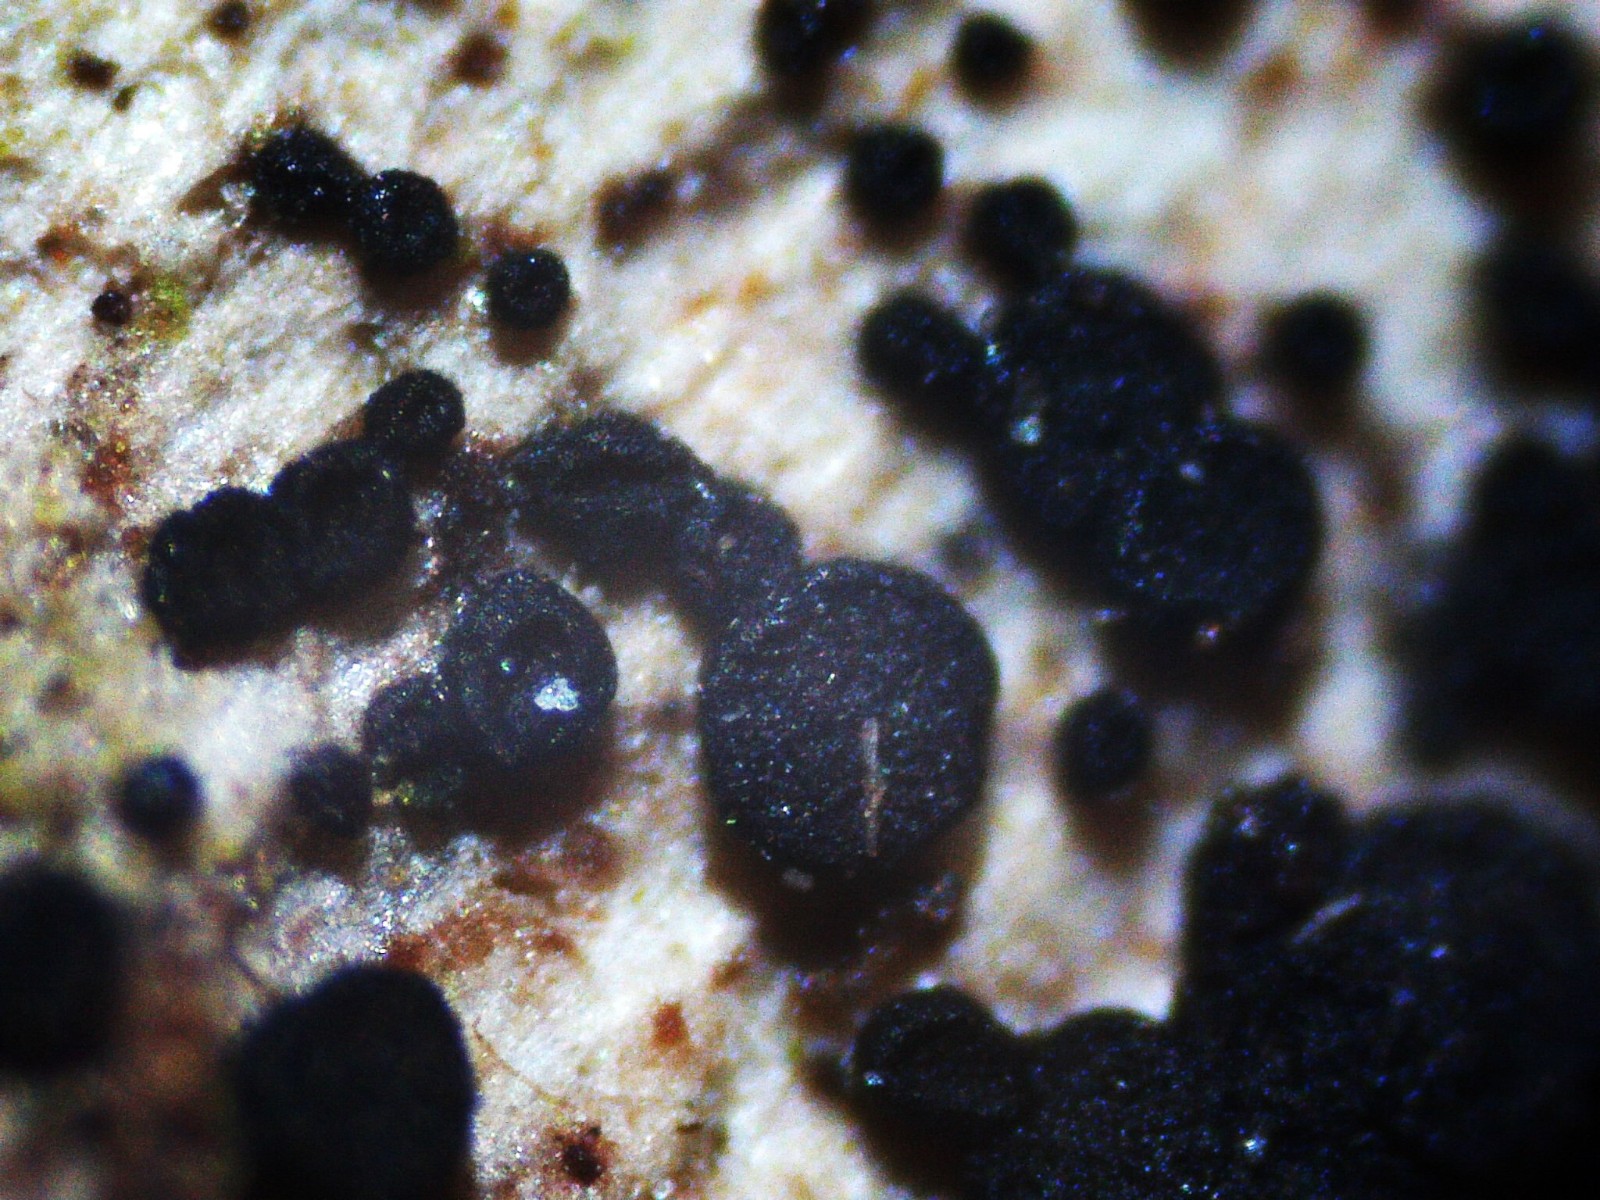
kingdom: Fungi
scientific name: Fungi
